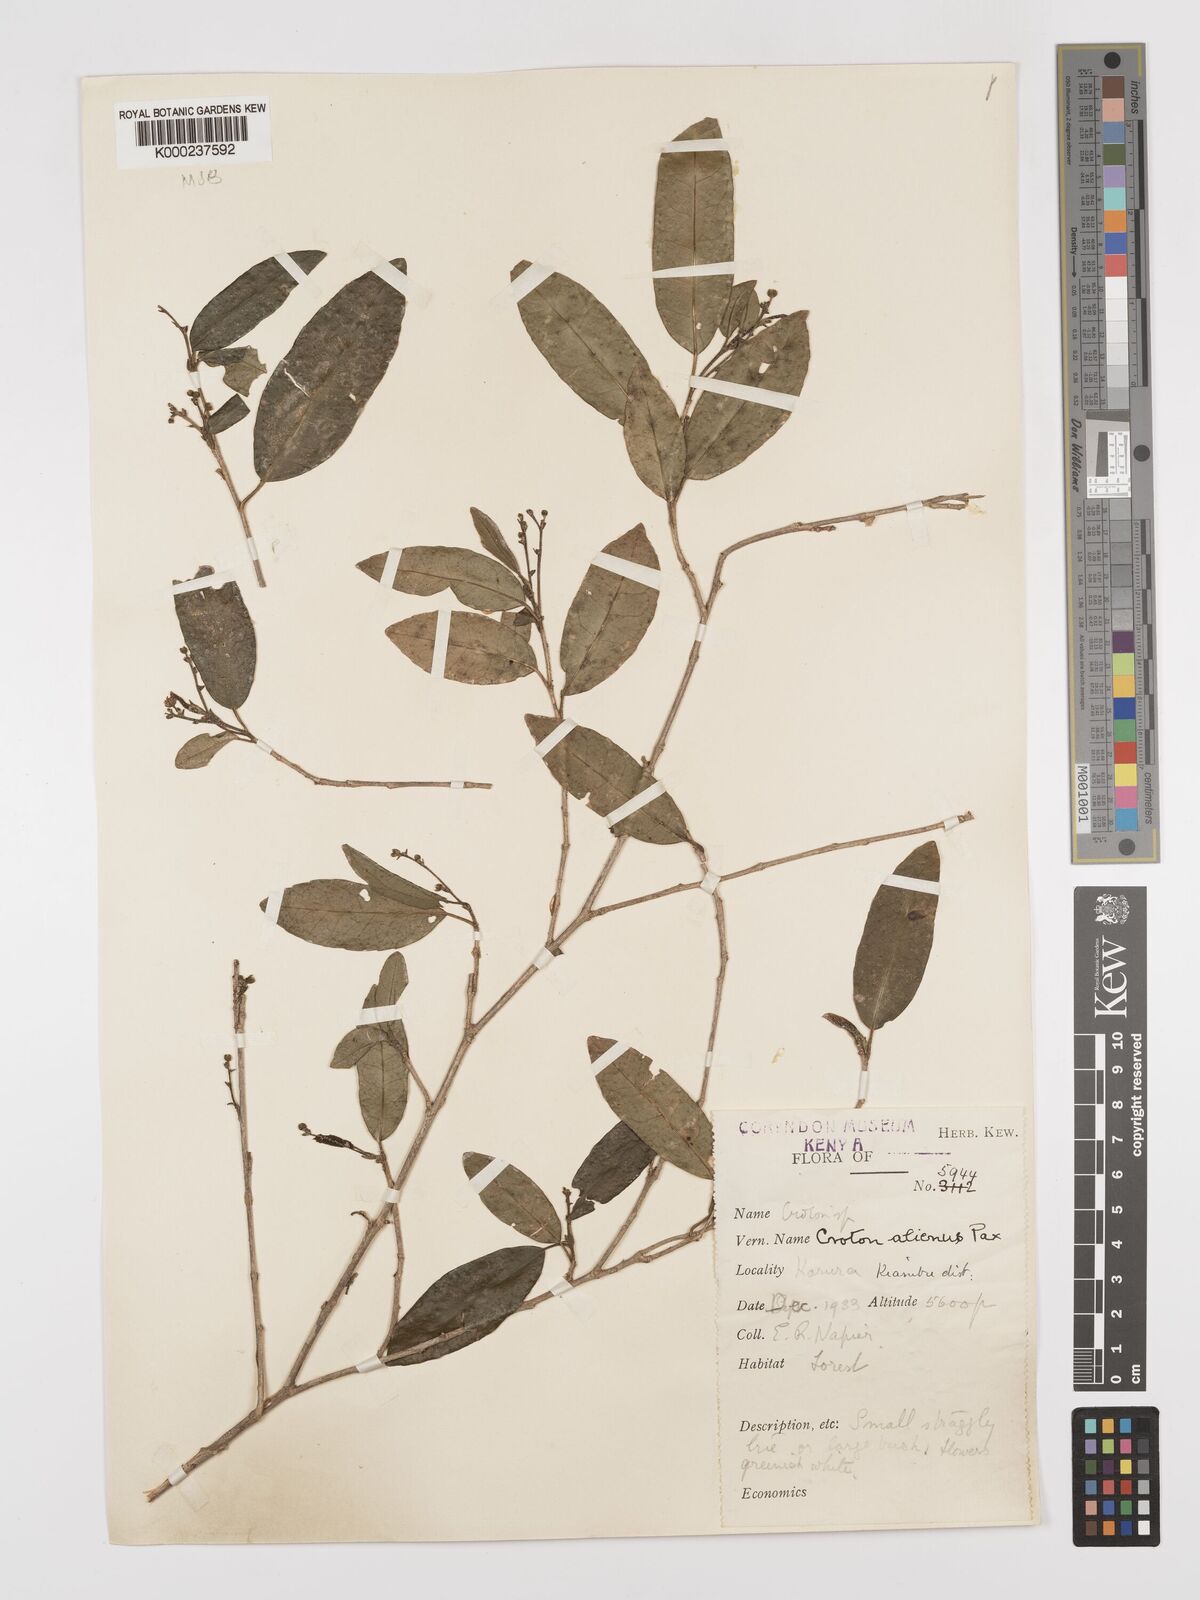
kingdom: Plantae
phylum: Tracheophyta
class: Magnoliopsida
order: Malpighiales
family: Euphorbiaceae
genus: Croton
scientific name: Croton alienus
